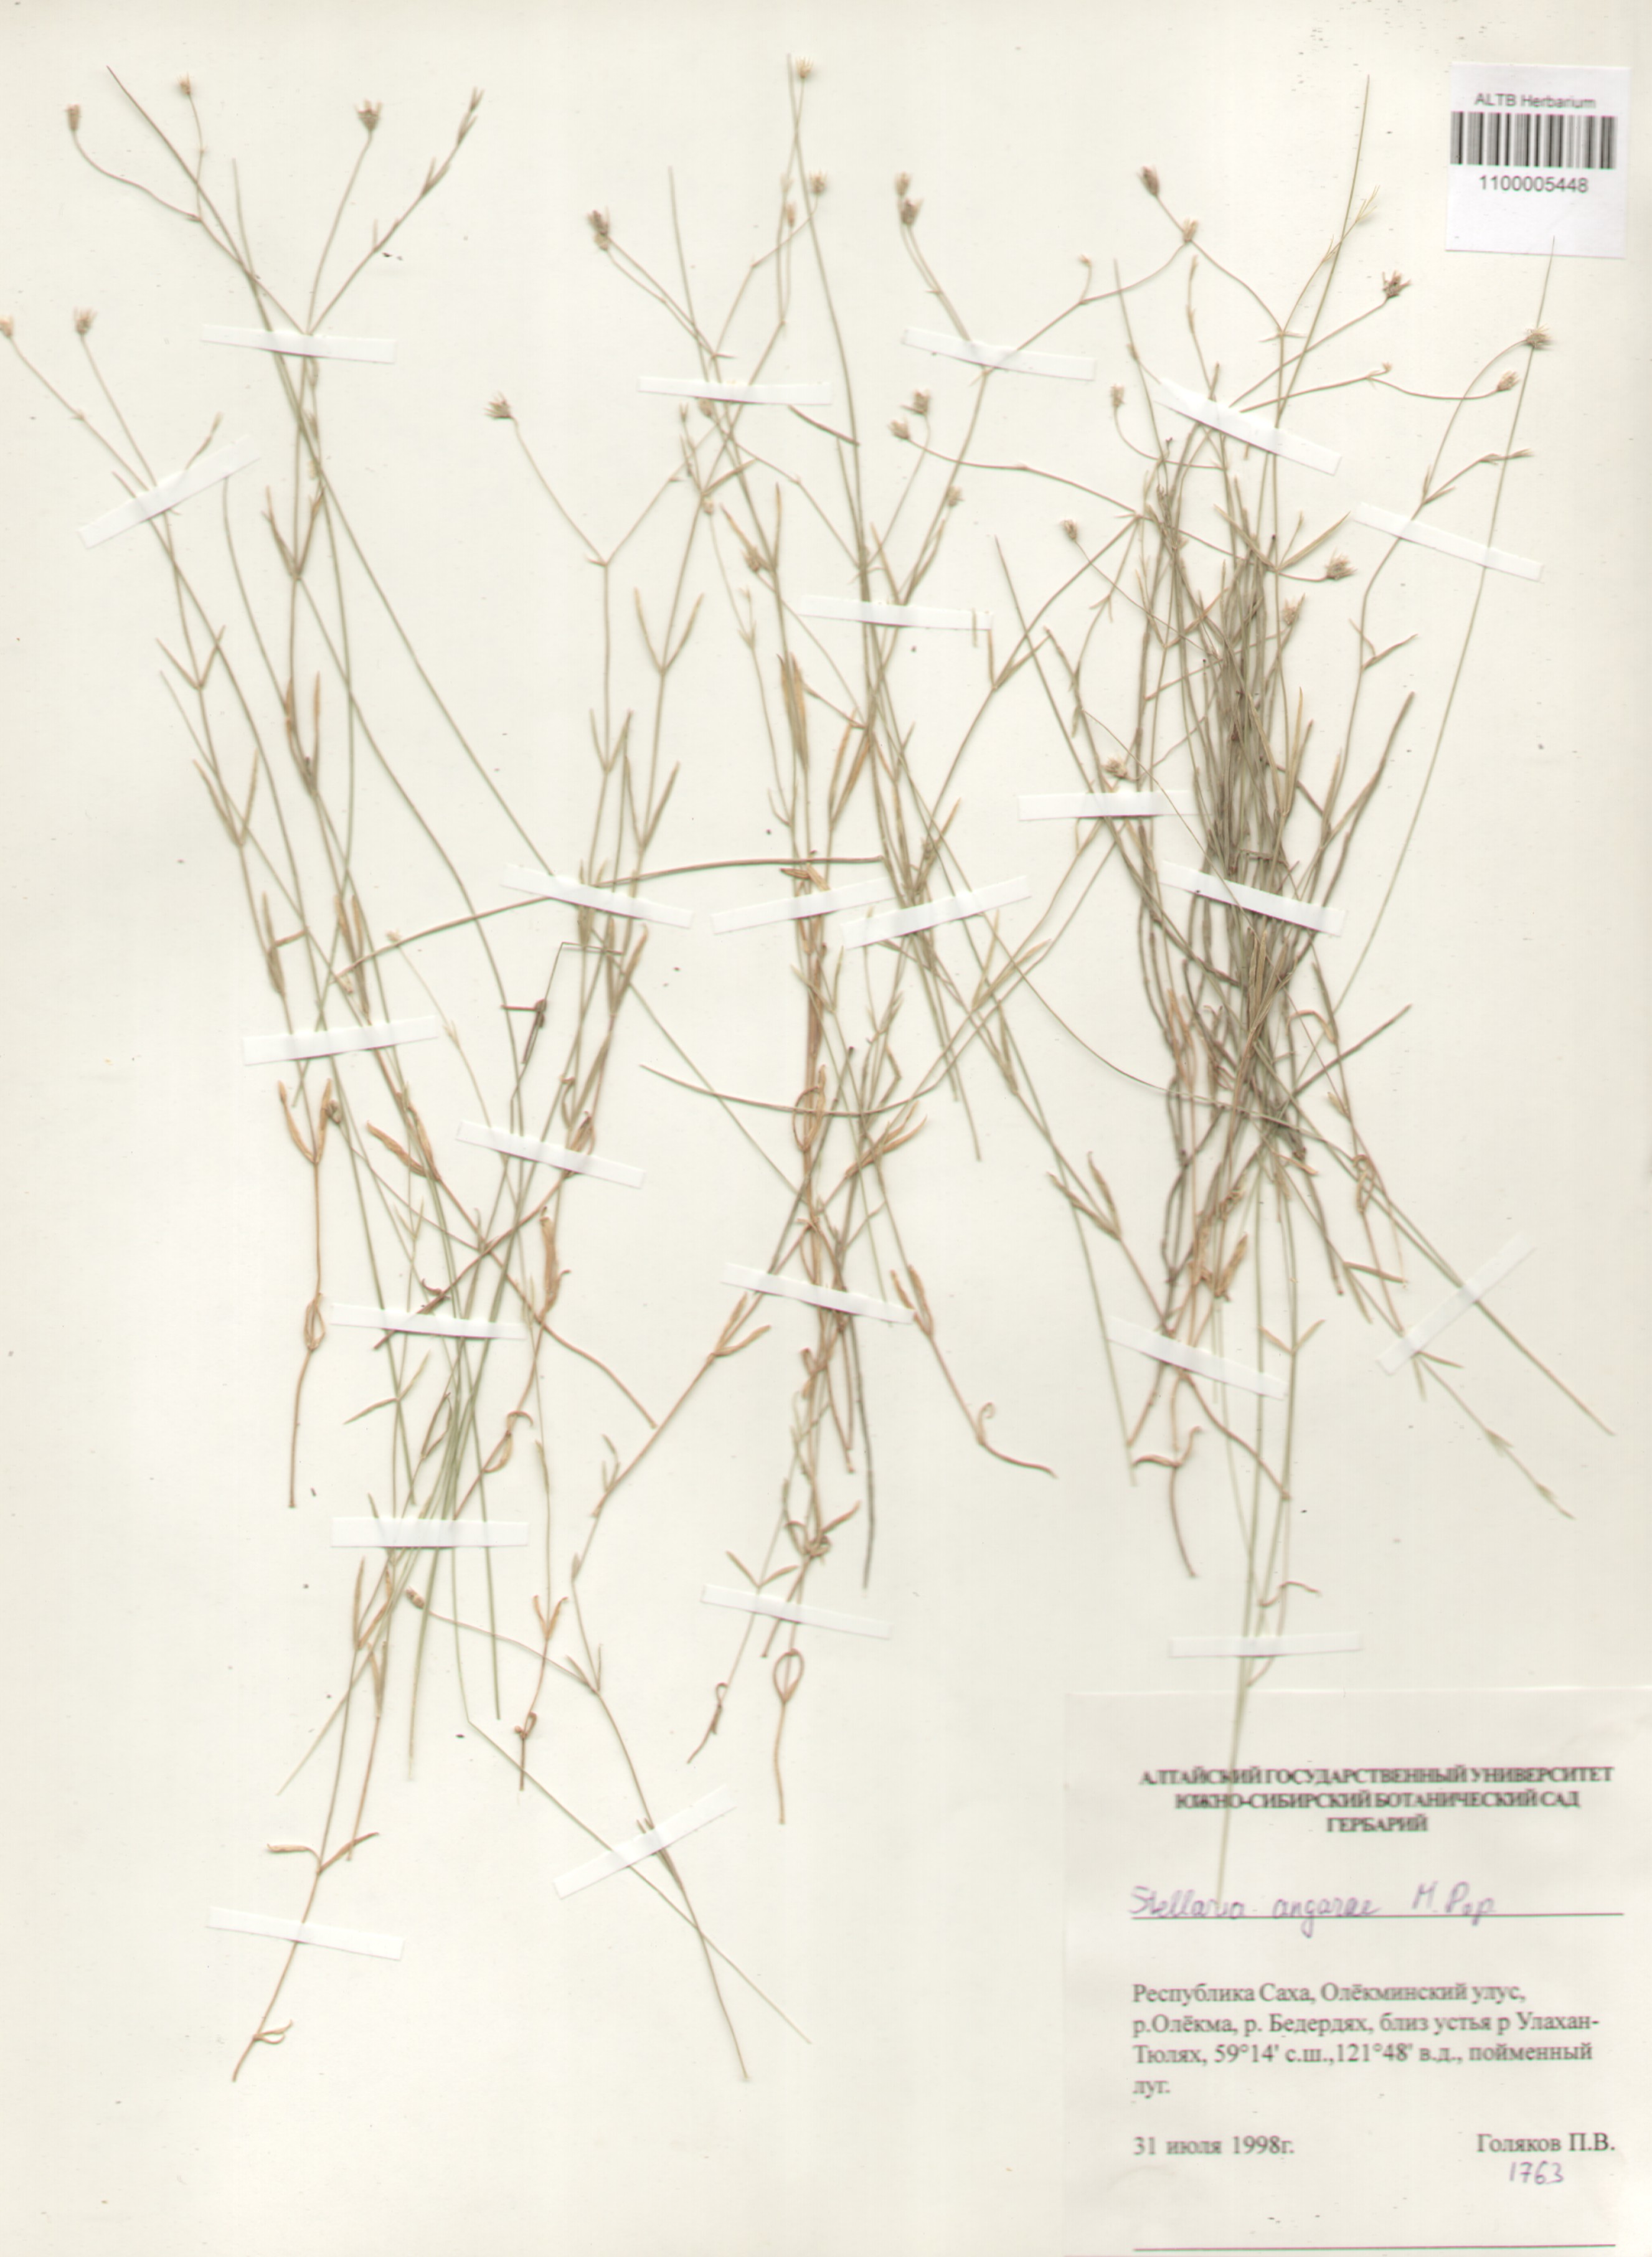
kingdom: Plantae
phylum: Tracheophyta
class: Magnoliopsida
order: Caryophyllales
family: Caryophyllaceae
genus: Stellaria
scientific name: Stellaria angarae
